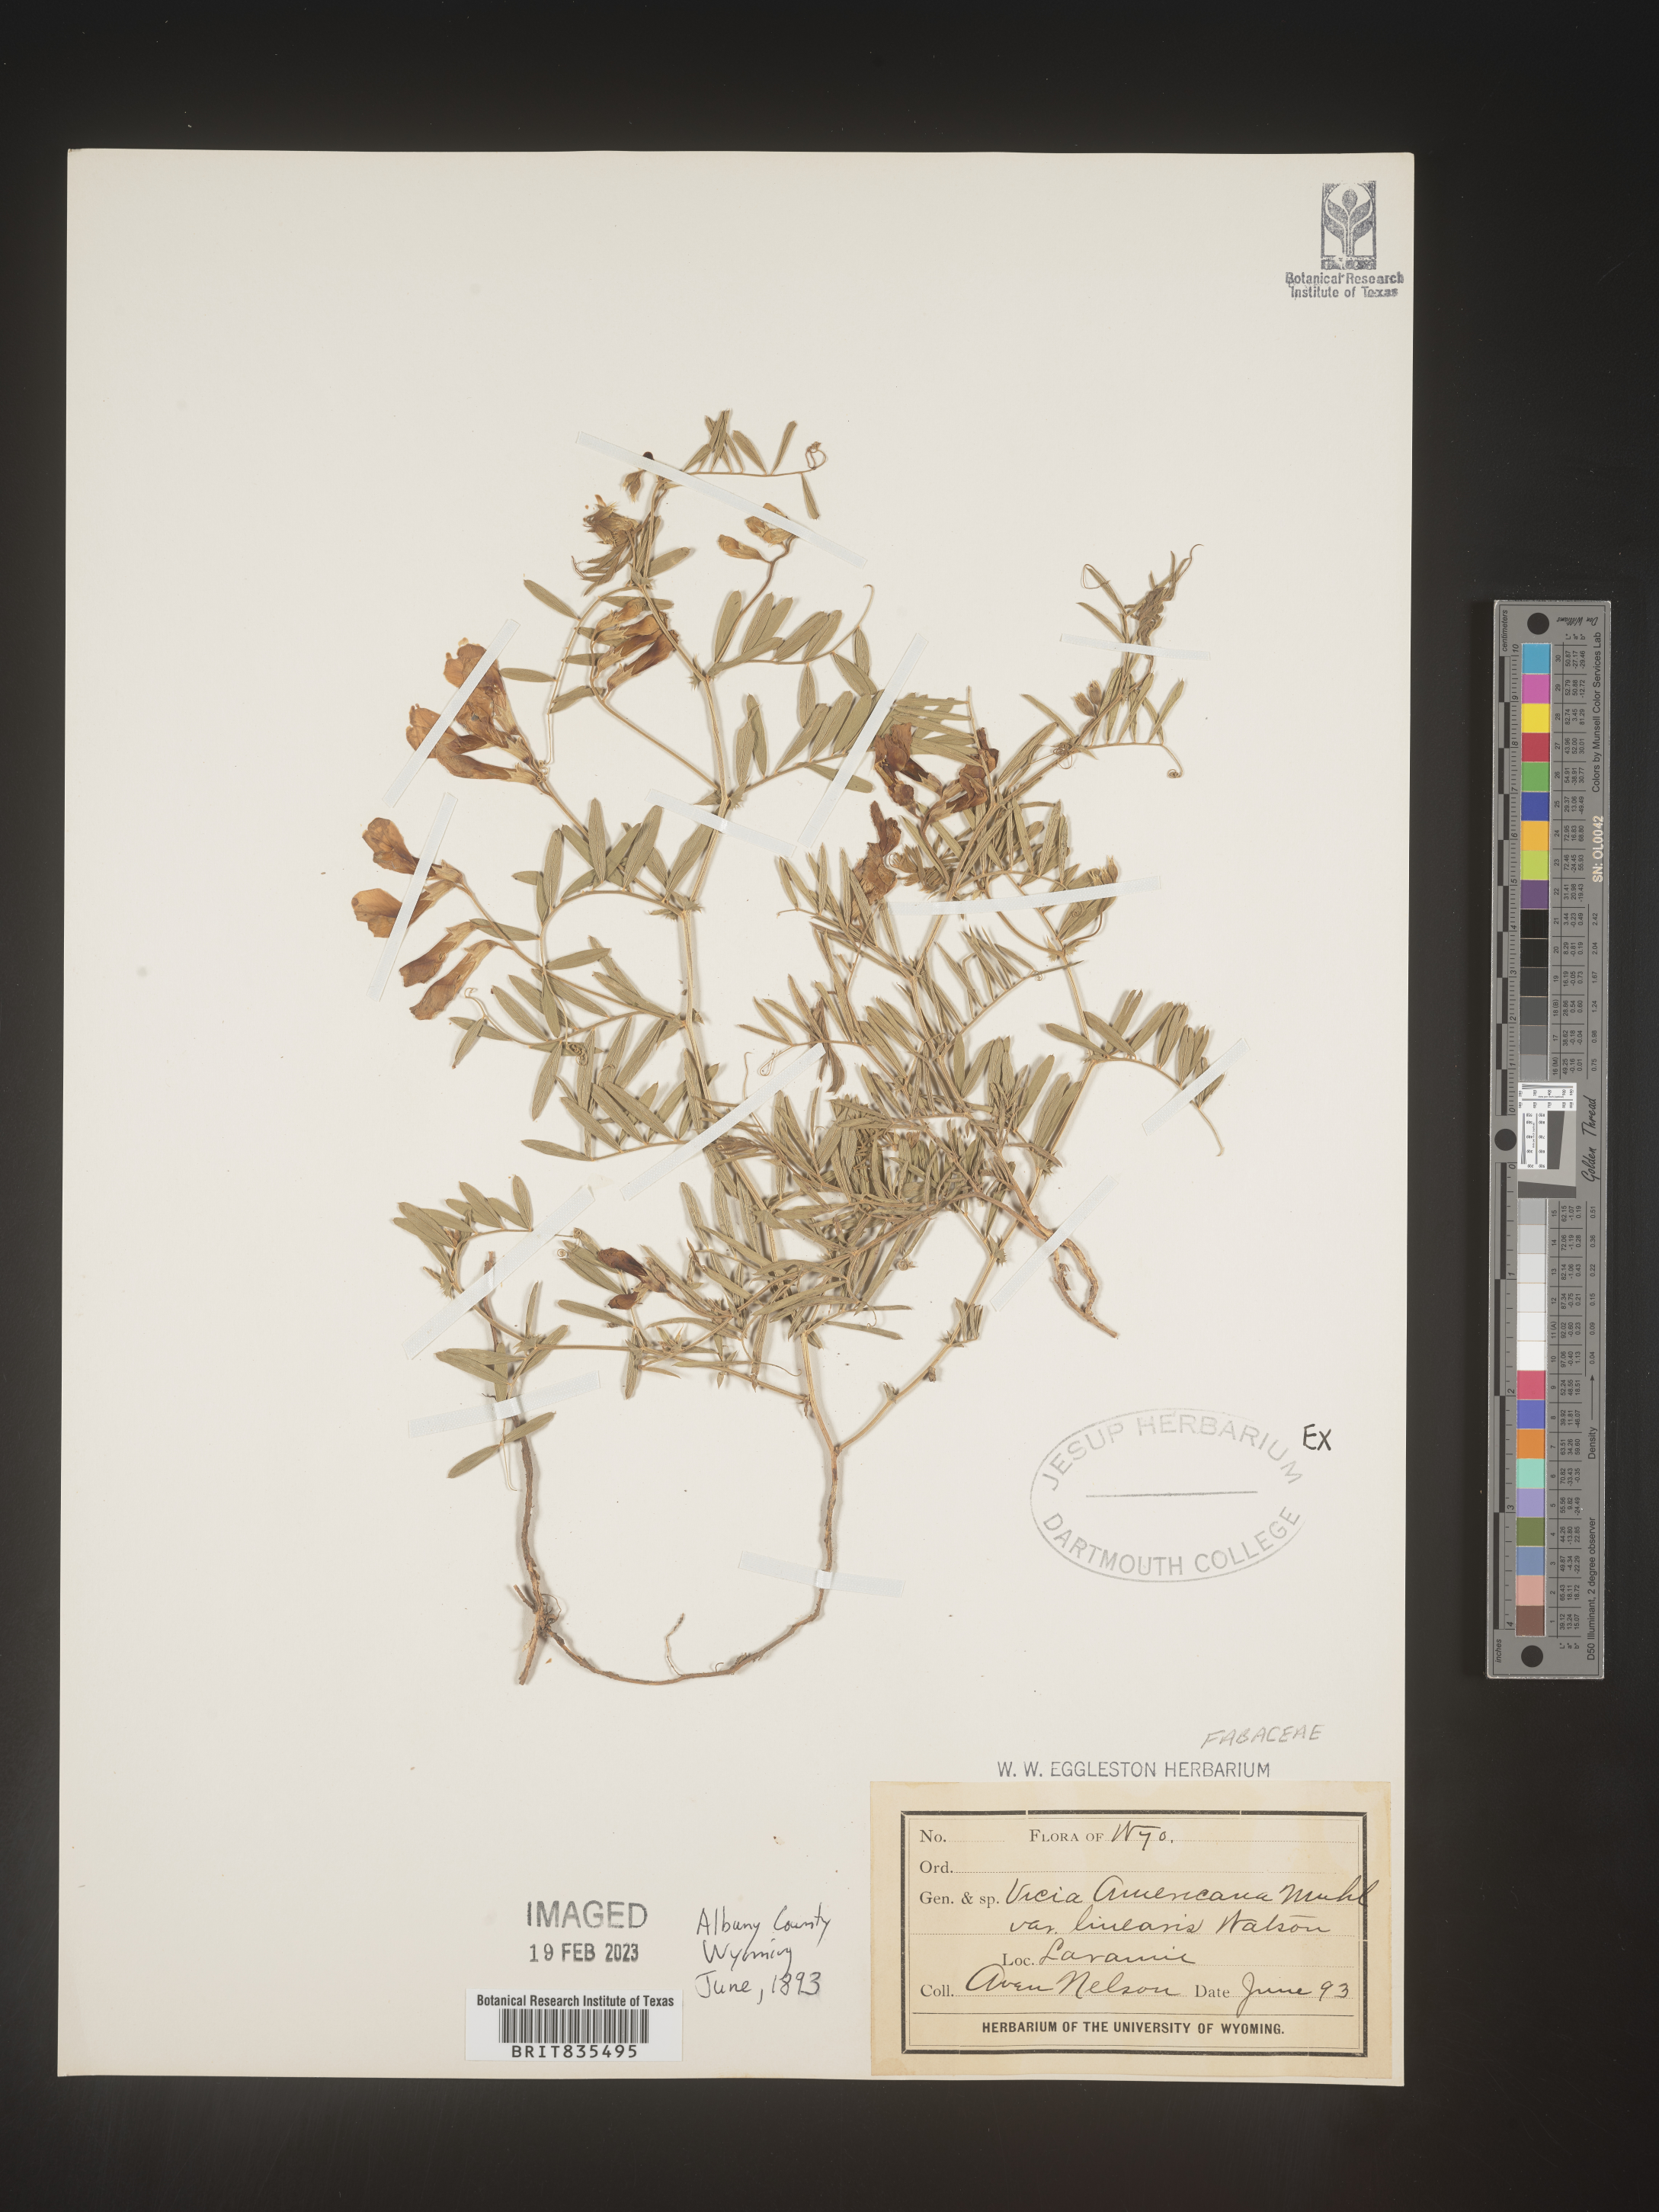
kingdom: Plantae
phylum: Tracheophyta
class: Magnoliopsida
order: Fabales
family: Fabaceae
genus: Vicia
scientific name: Vicia americana
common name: American vetch
